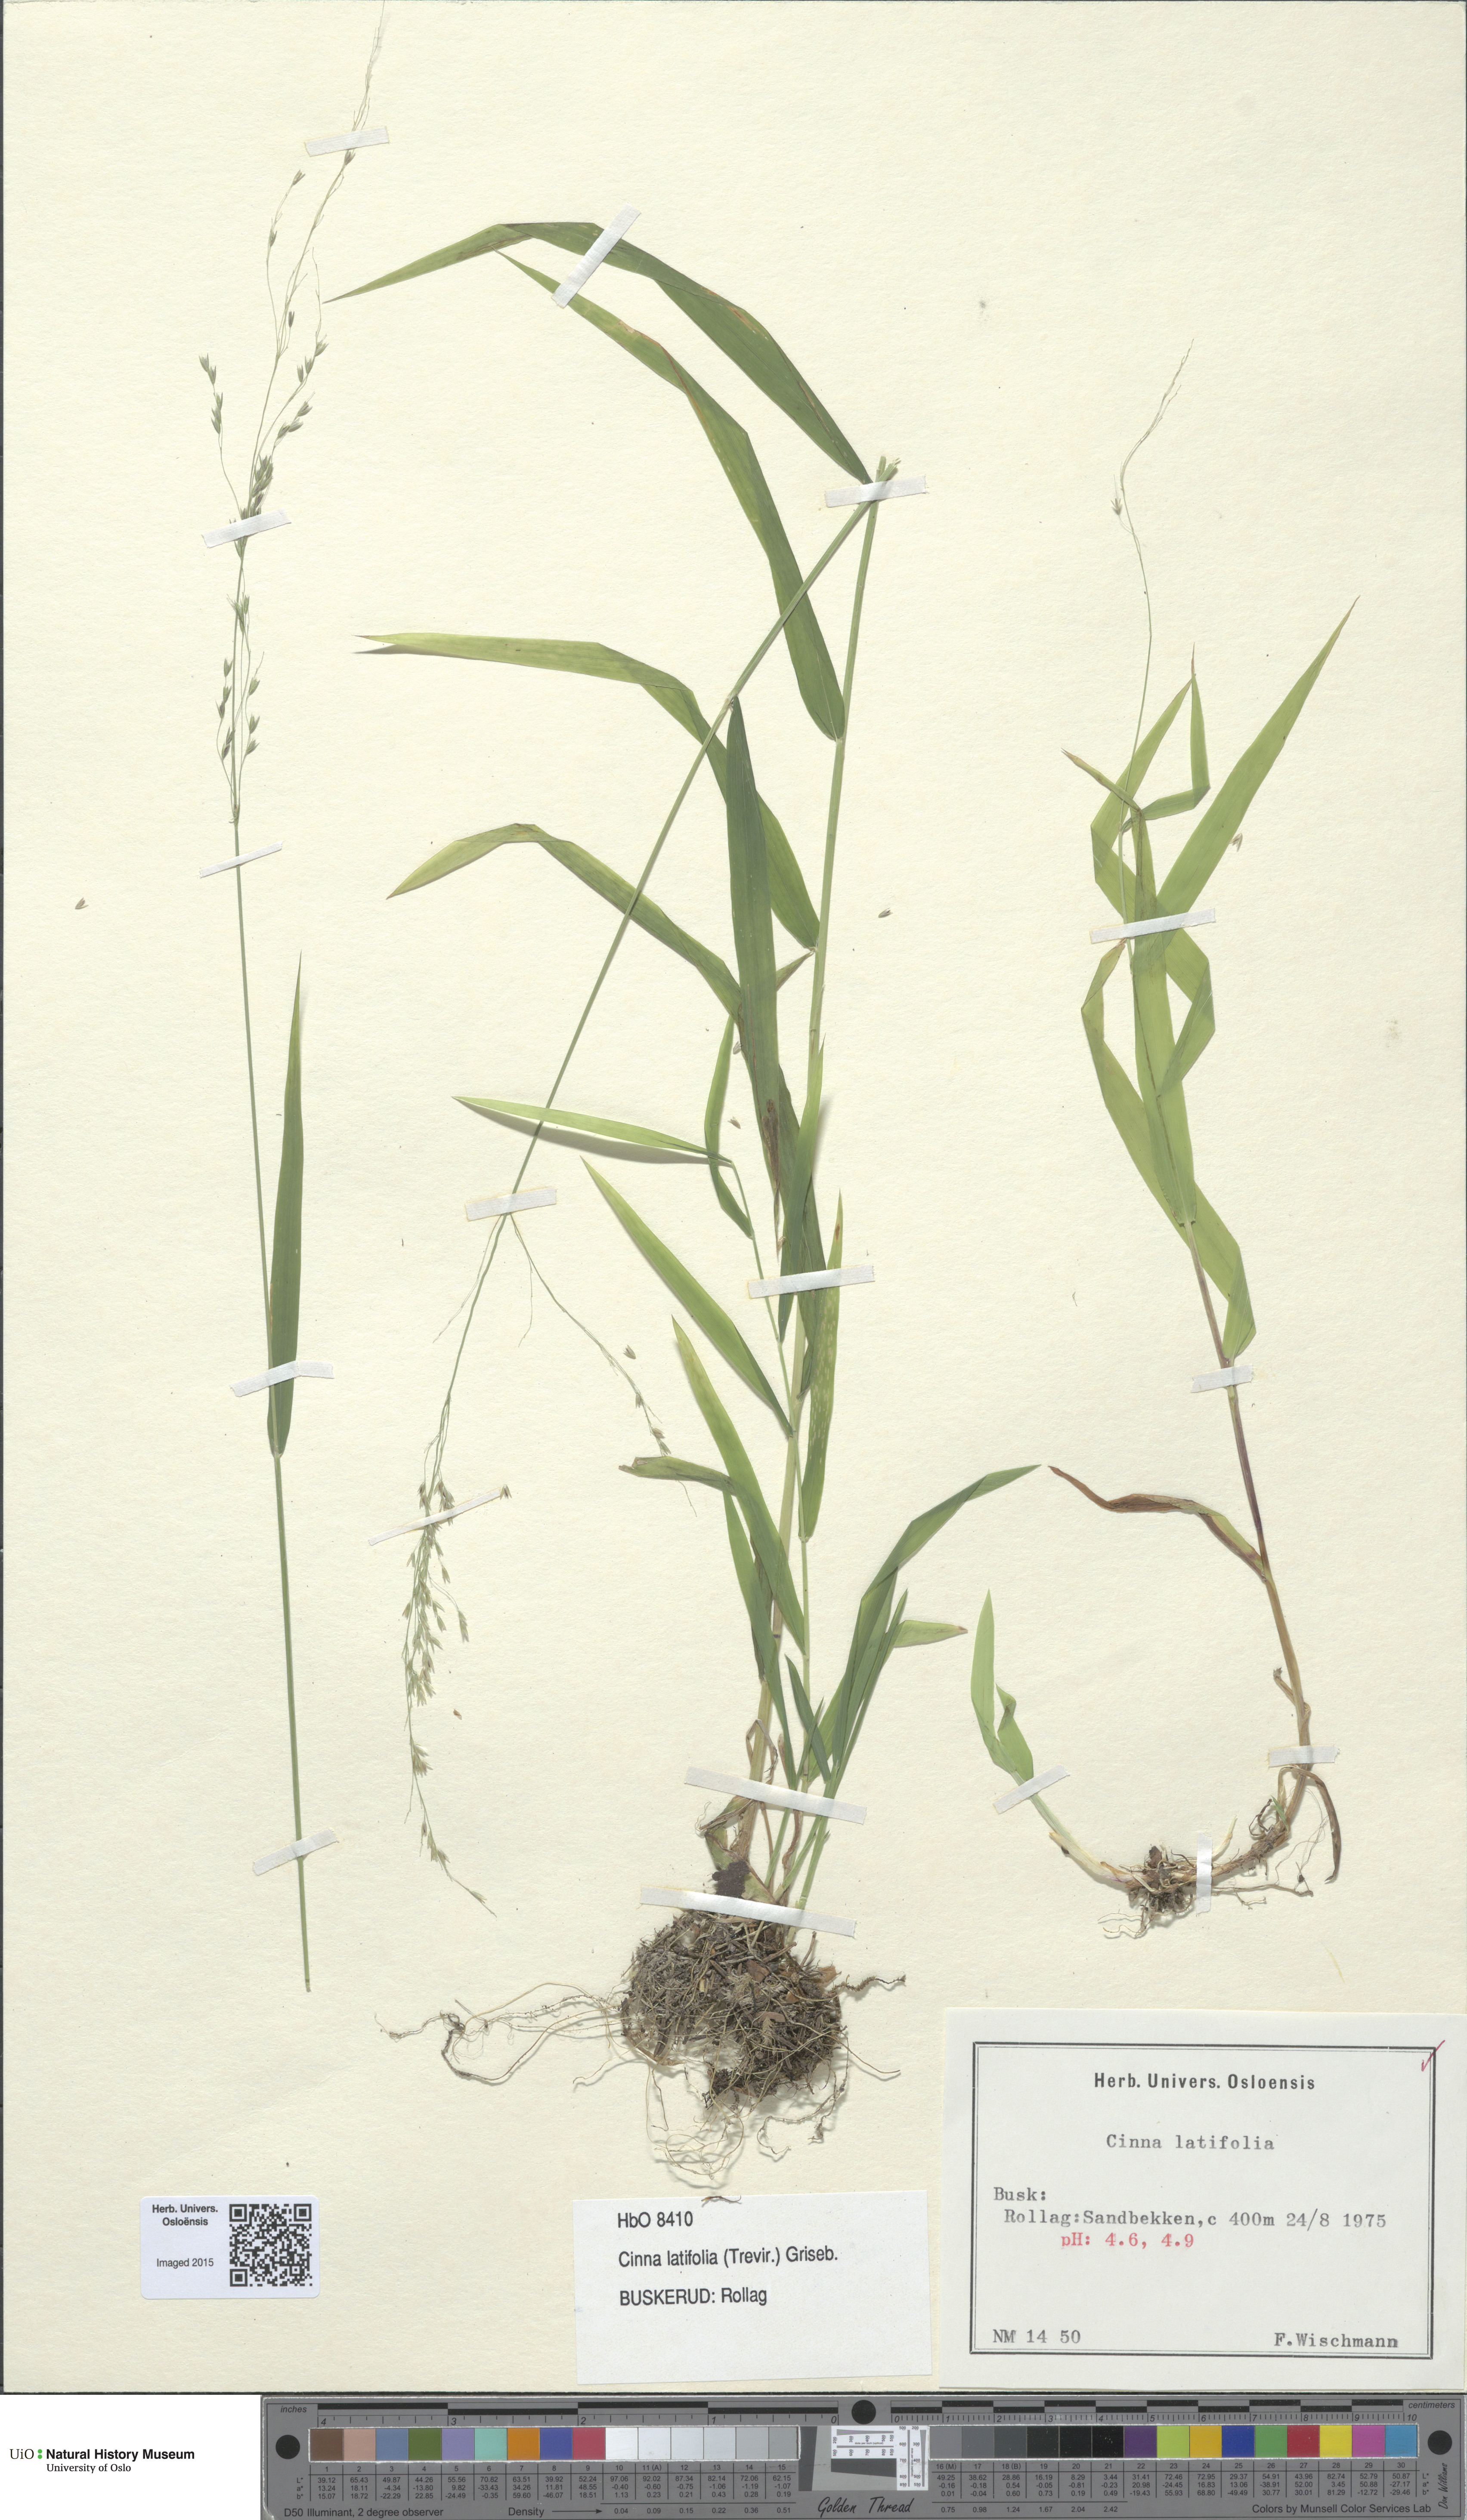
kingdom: Plantae
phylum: Tracheophyta
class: Liliopsida
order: Poales
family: Poaceae
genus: Cinna
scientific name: Cinna latifolia
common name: Drooping woodreed
